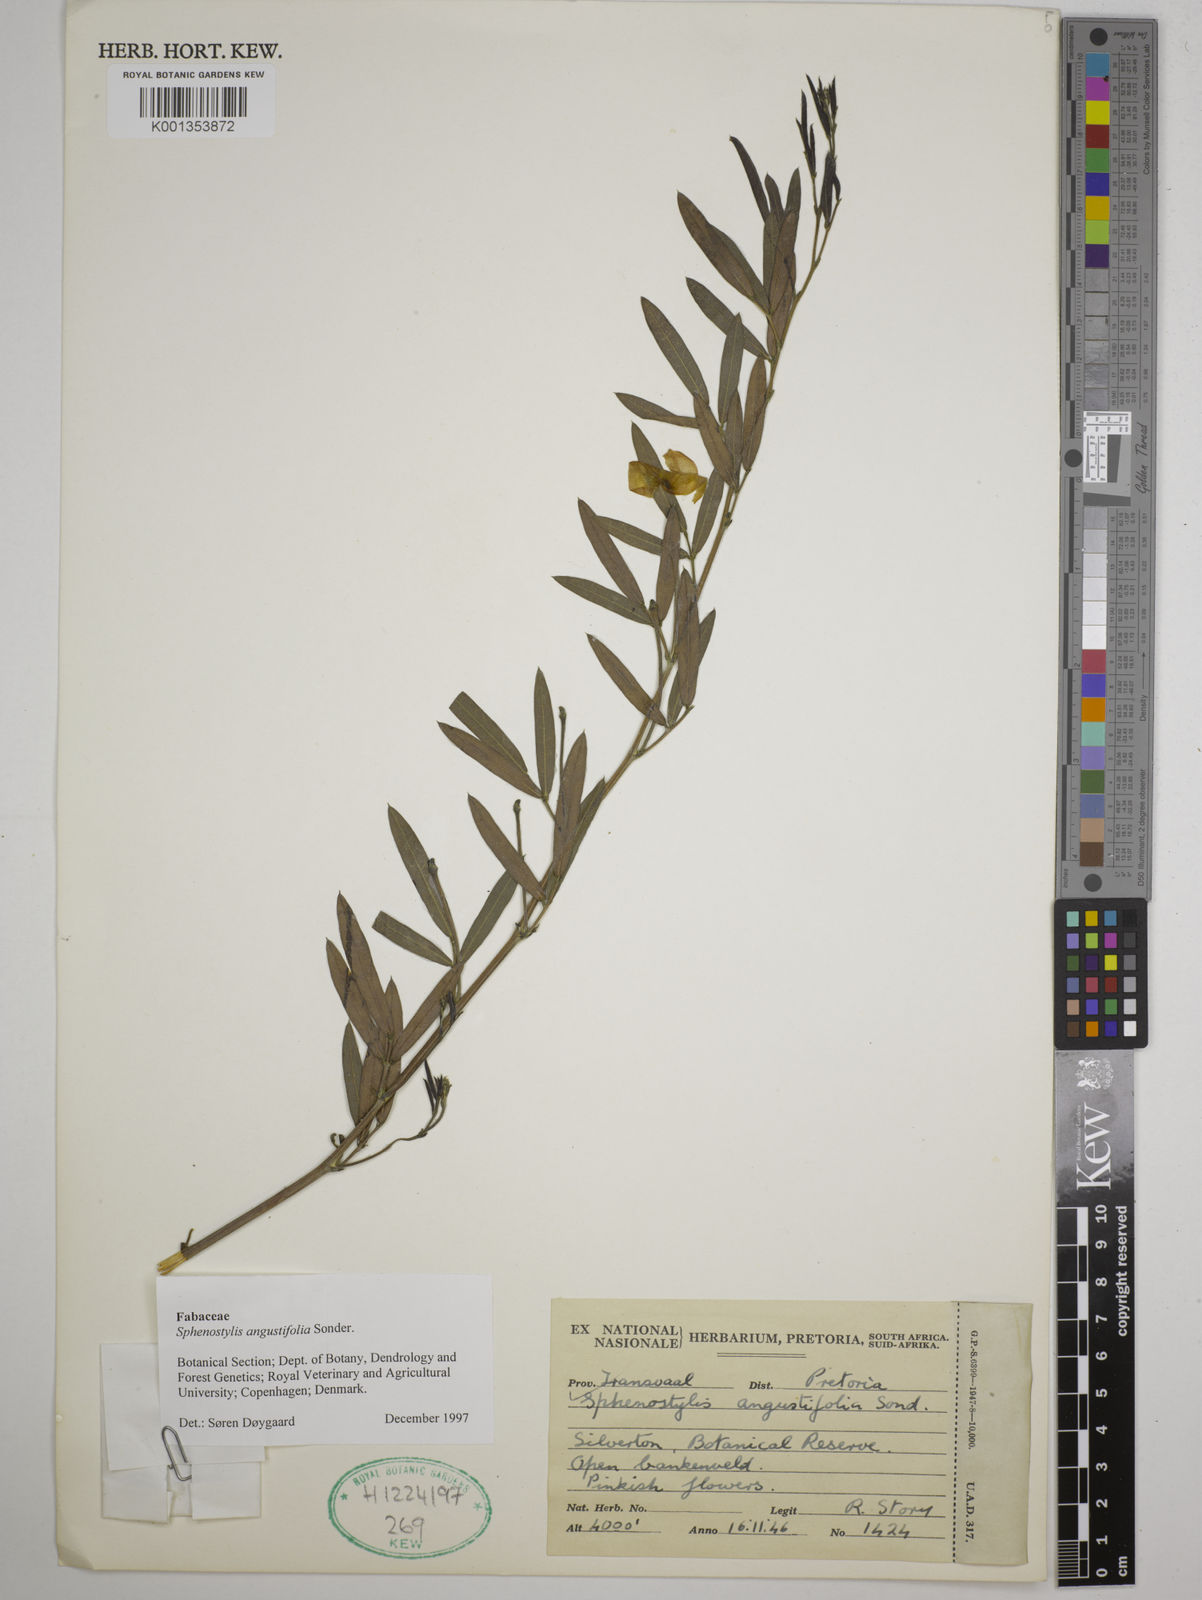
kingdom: Plantae
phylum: Tracheophyta
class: Magnoliopsida
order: Fabales
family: Fabaceae
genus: Sphenostylis
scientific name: Sphenostylis angustifolia
